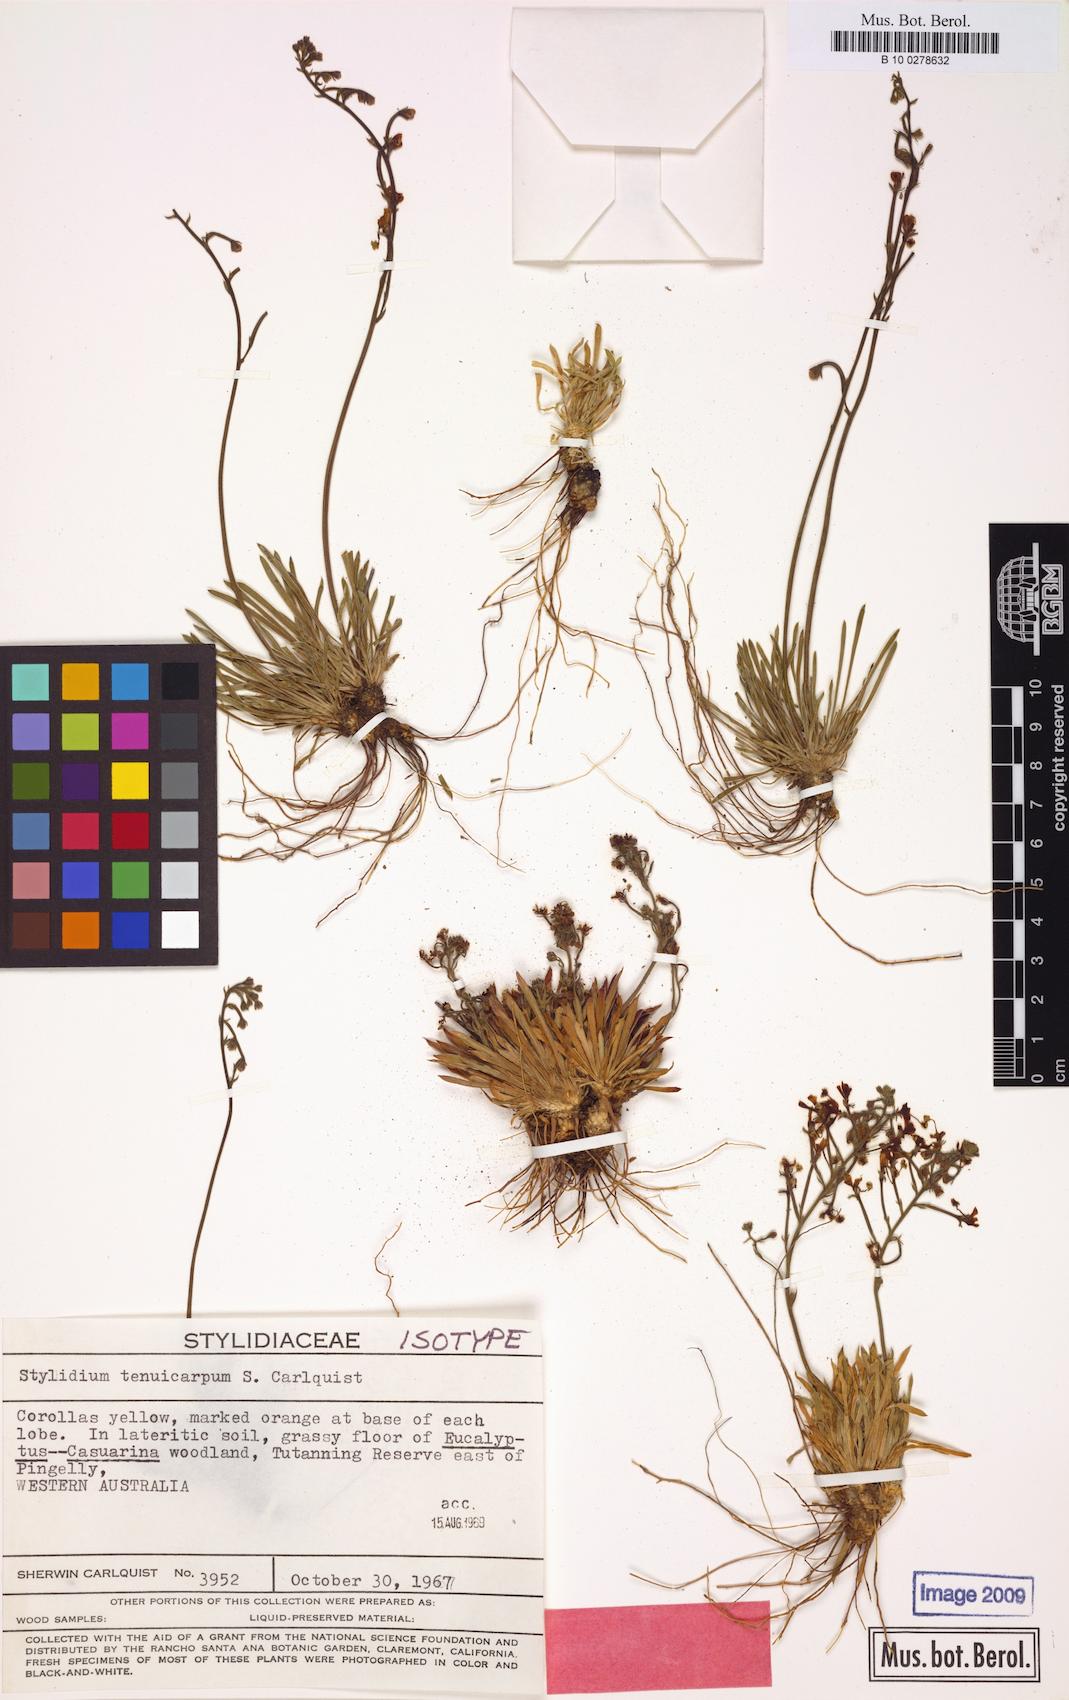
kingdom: Plantae
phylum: Tracheophyta
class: Magnoliopsida
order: Asterales
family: Stylidiaceae
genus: Stylidium
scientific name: Stylidium tenuicarpum
